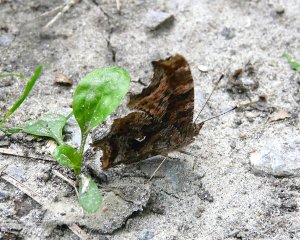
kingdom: Animalia
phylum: Arthropoda
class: Insecta
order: Lepidoptera
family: Nymphalidae
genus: Polygonia
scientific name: Polygonia comma
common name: Eastern Comma
